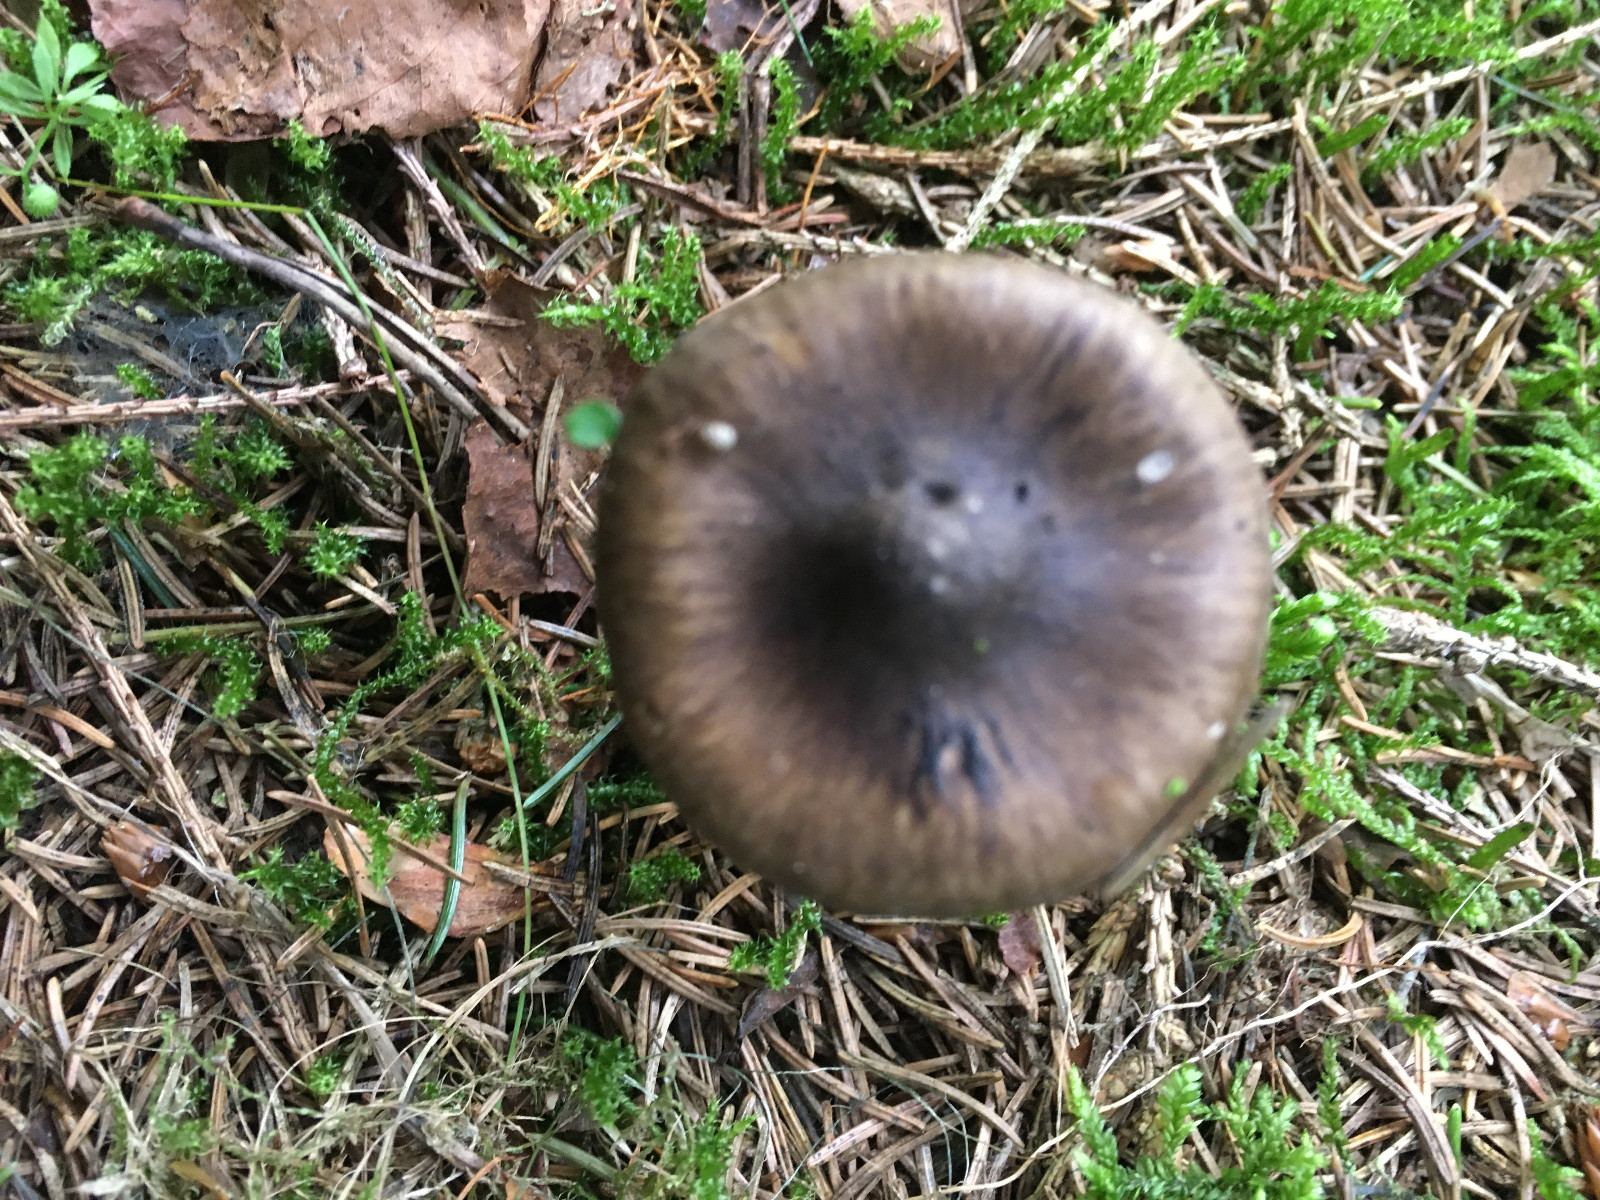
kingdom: Fungi
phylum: Basidiomycota
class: Agaricomycetes
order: Agaricales
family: Hygrophoraceae
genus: Hygrophorus
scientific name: Hygrophorus olivaceoalbus
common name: hvidbrun sneglehat
